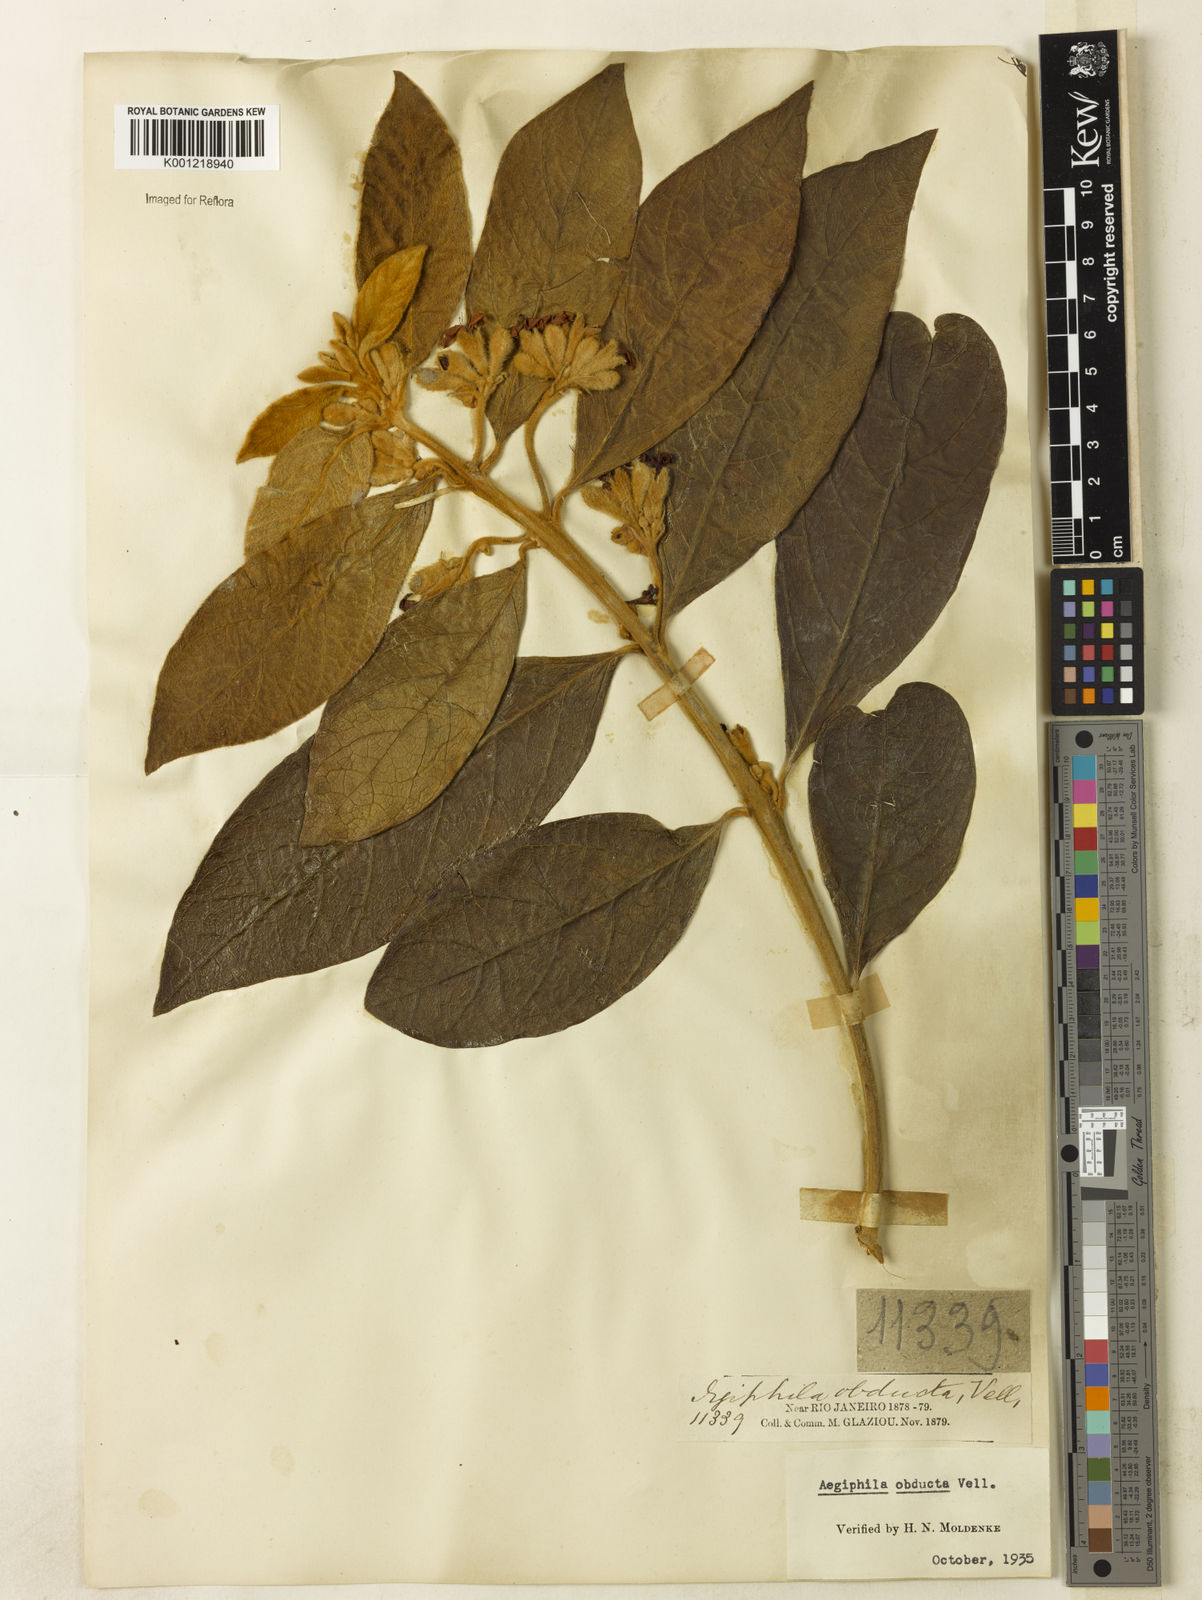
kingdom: Plantae
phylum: Tracheophyta
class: Magnoliopsida
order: Lamiales
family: Lamiaceae
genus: Aegiphila
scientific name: Aegiphila obducta
